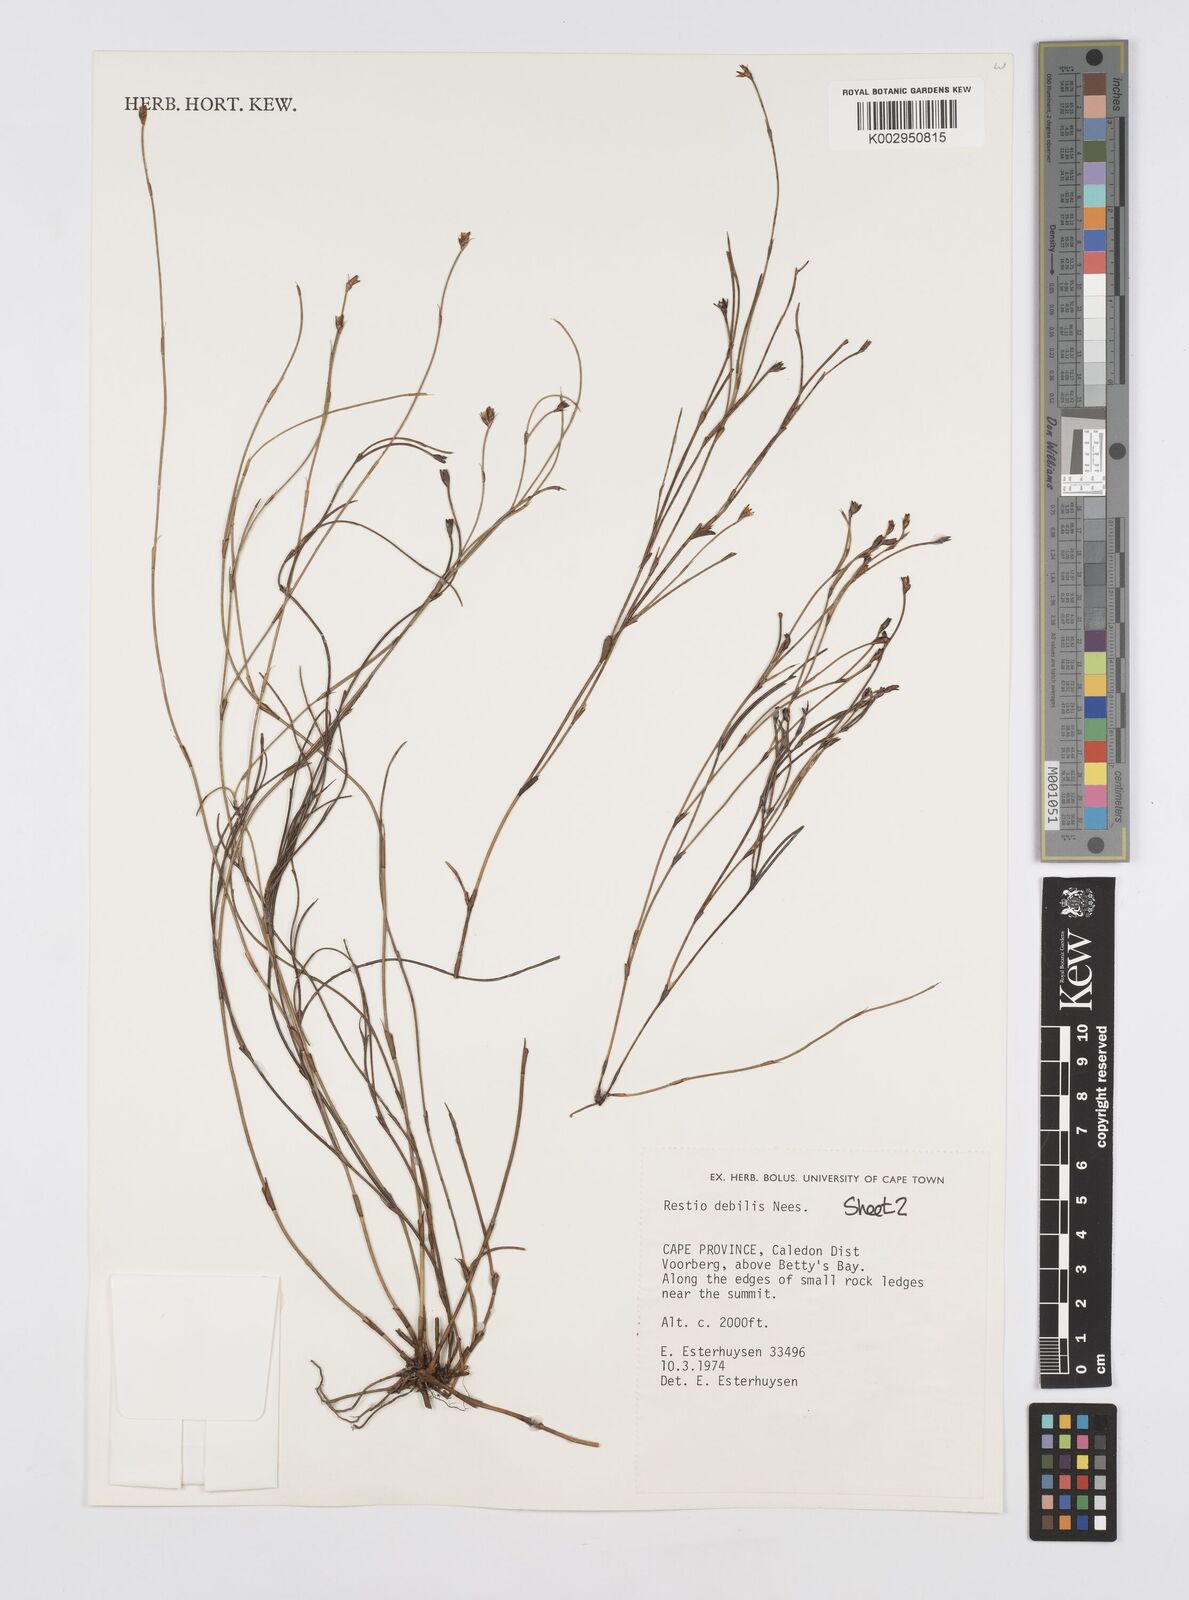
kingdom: Plantae
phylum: Tracheophyta
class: Liliopsida
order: Poales
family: Restionaceae
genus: Restio
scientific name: Restio debilis
